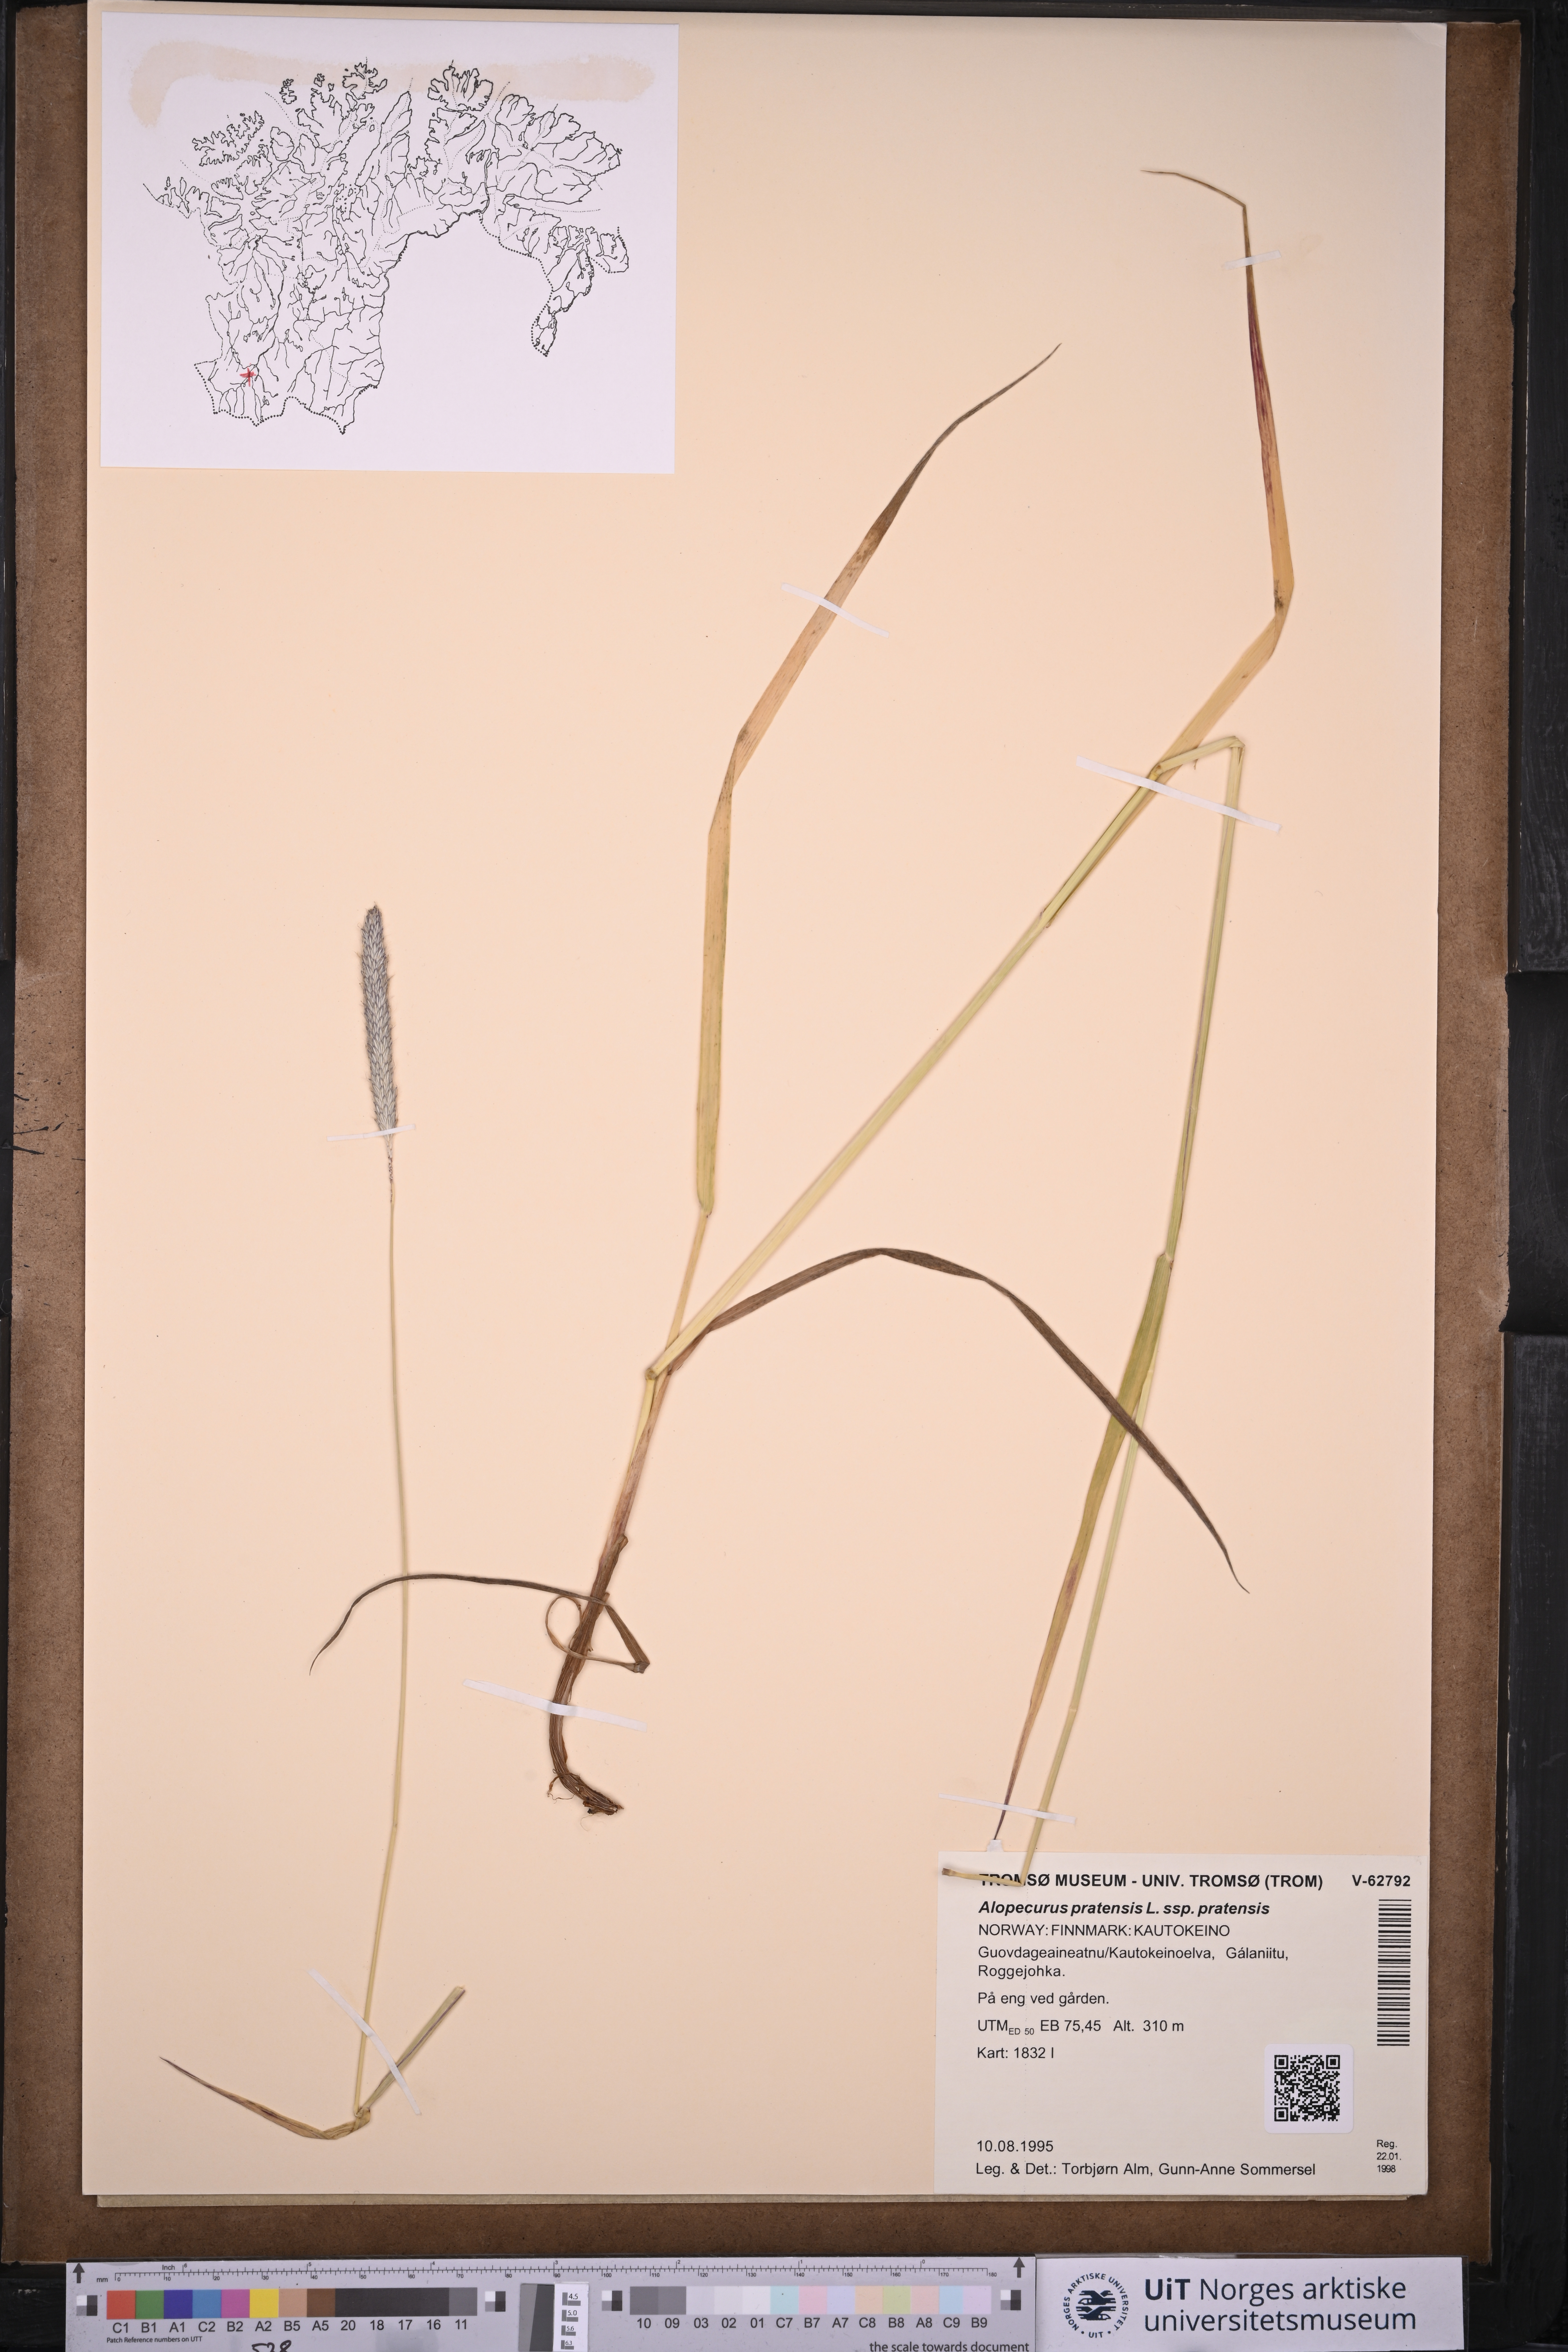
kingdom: Plantae
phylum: Tracheophyta
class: Liliopsida
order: Poales
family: Poaceae
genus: Alopecurus
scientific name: Alopecurus pratensis
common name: Meadow foxtail
